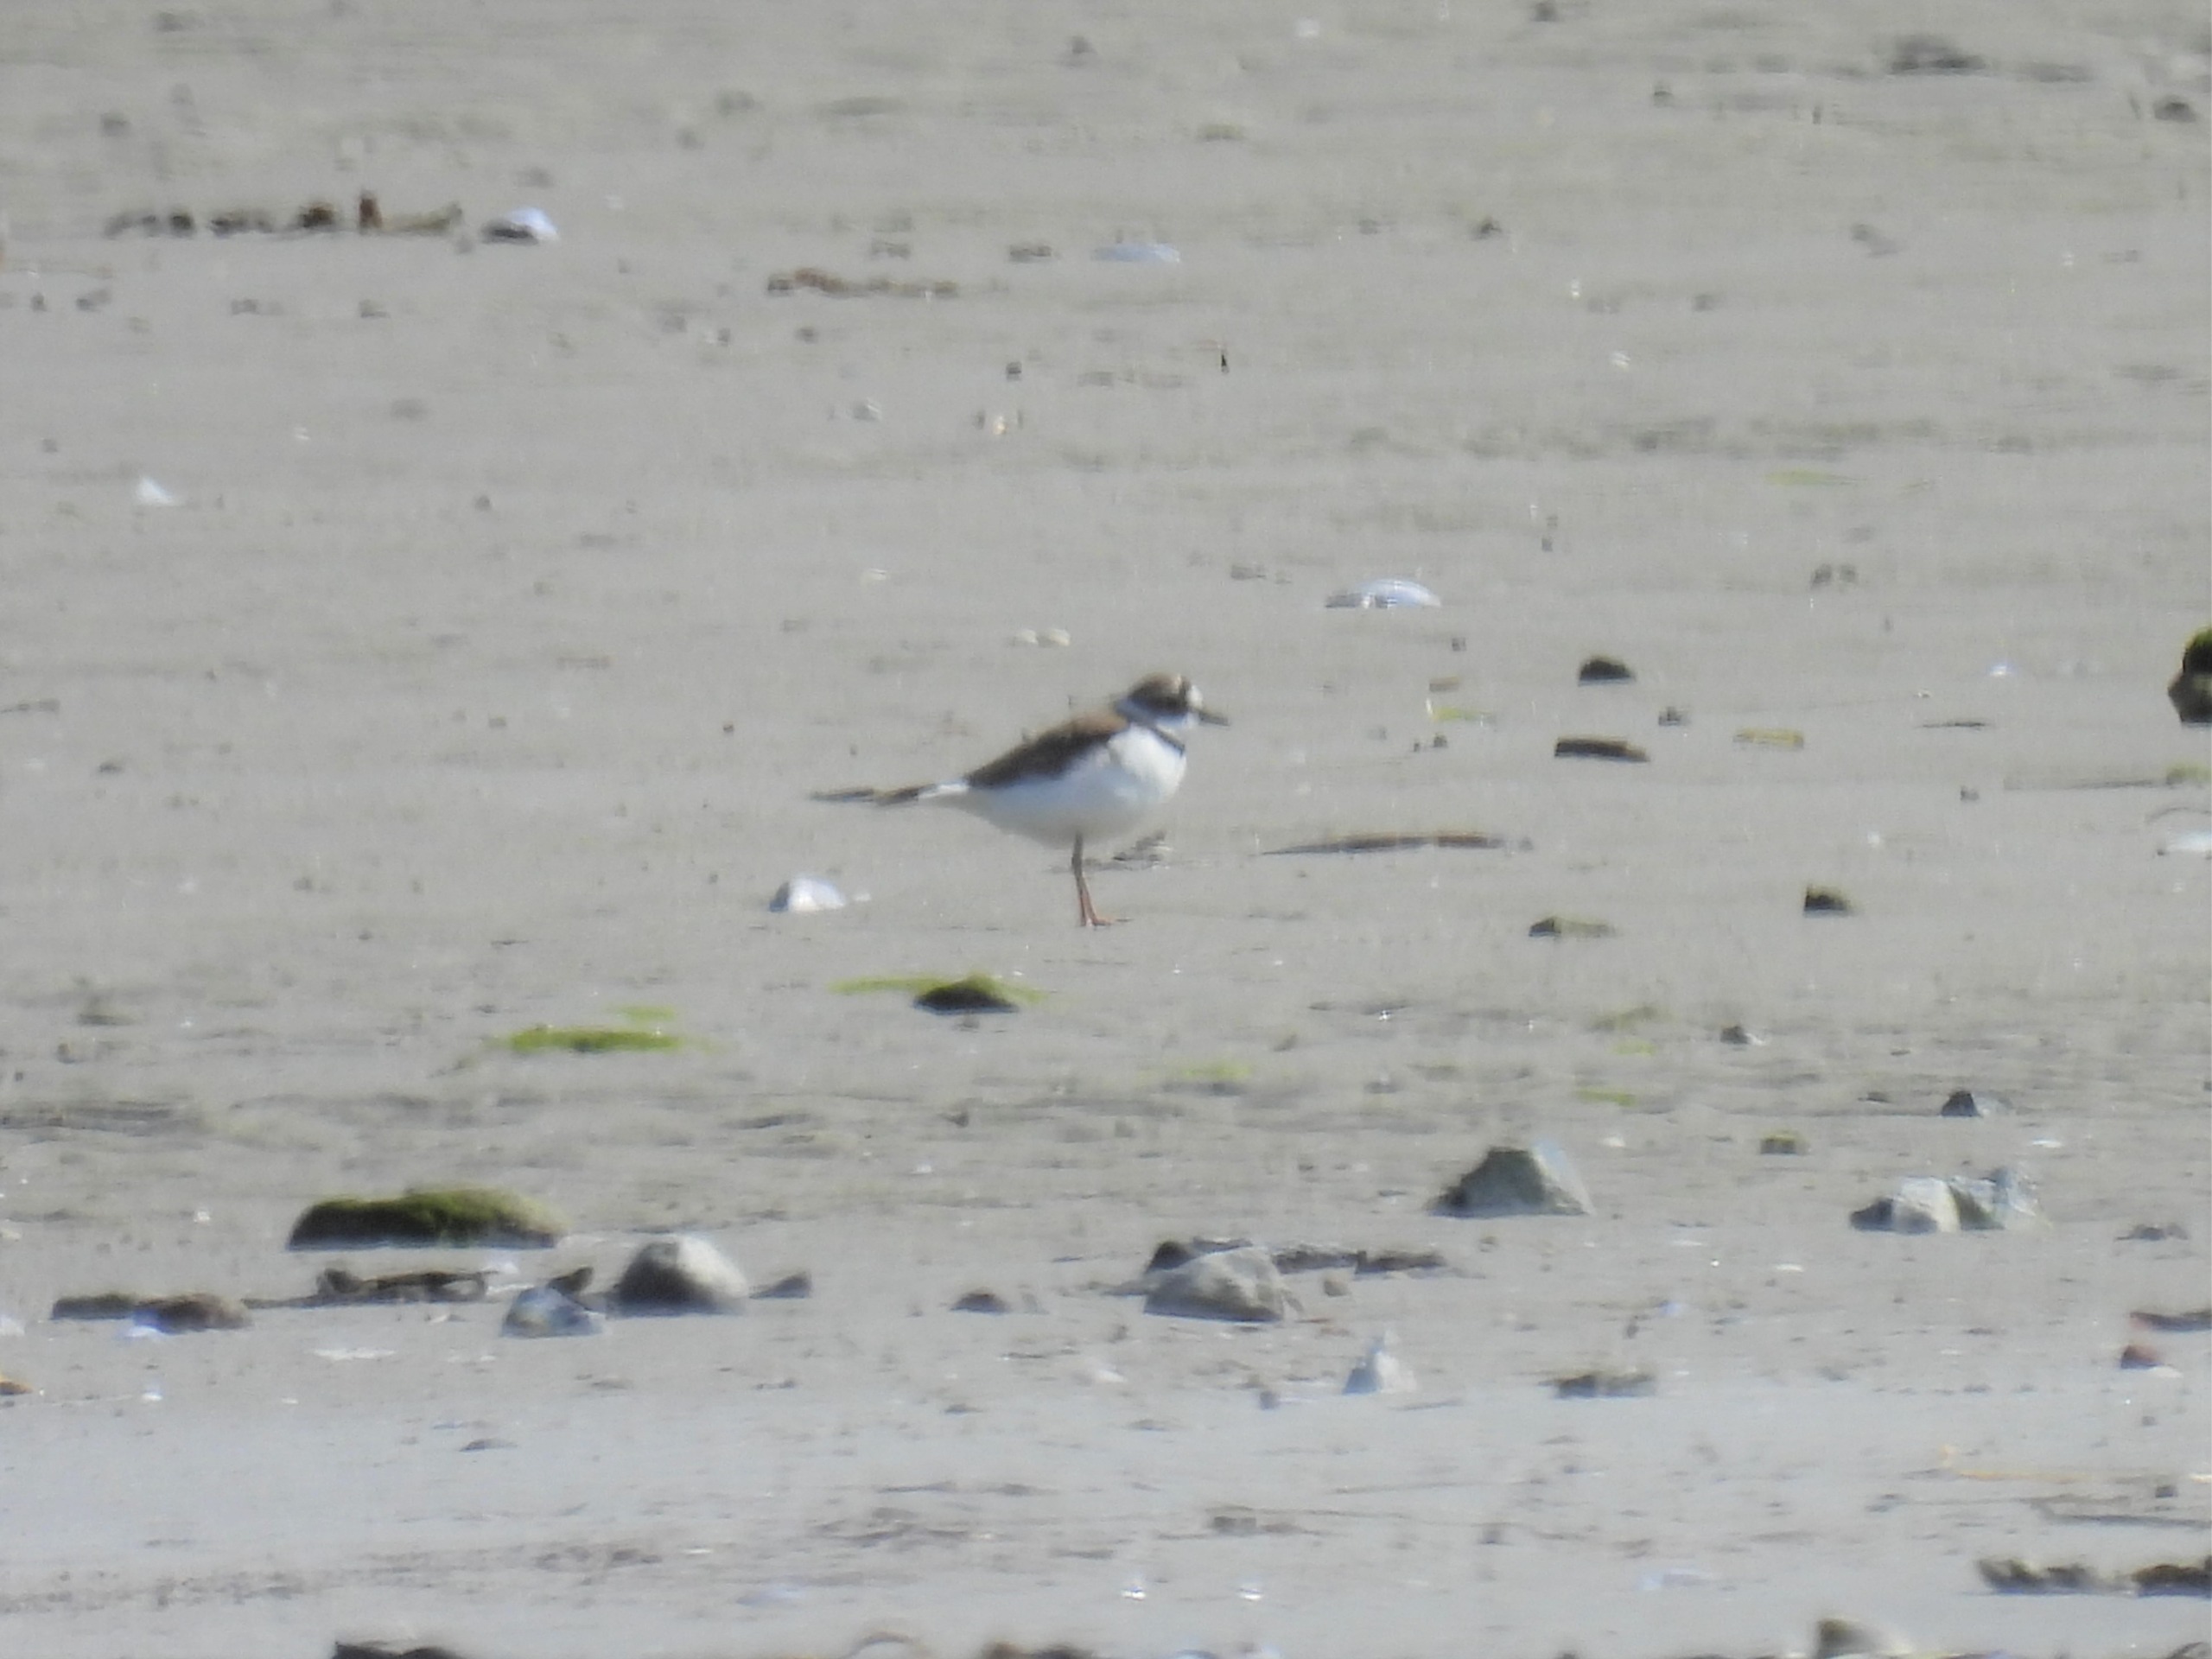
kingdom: Animalia
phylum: Chordata
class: Aves
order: Charadriiformes
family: Charadriidae
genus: Charadrius
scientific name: Charadrius dubius
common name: Lille præstekrave
